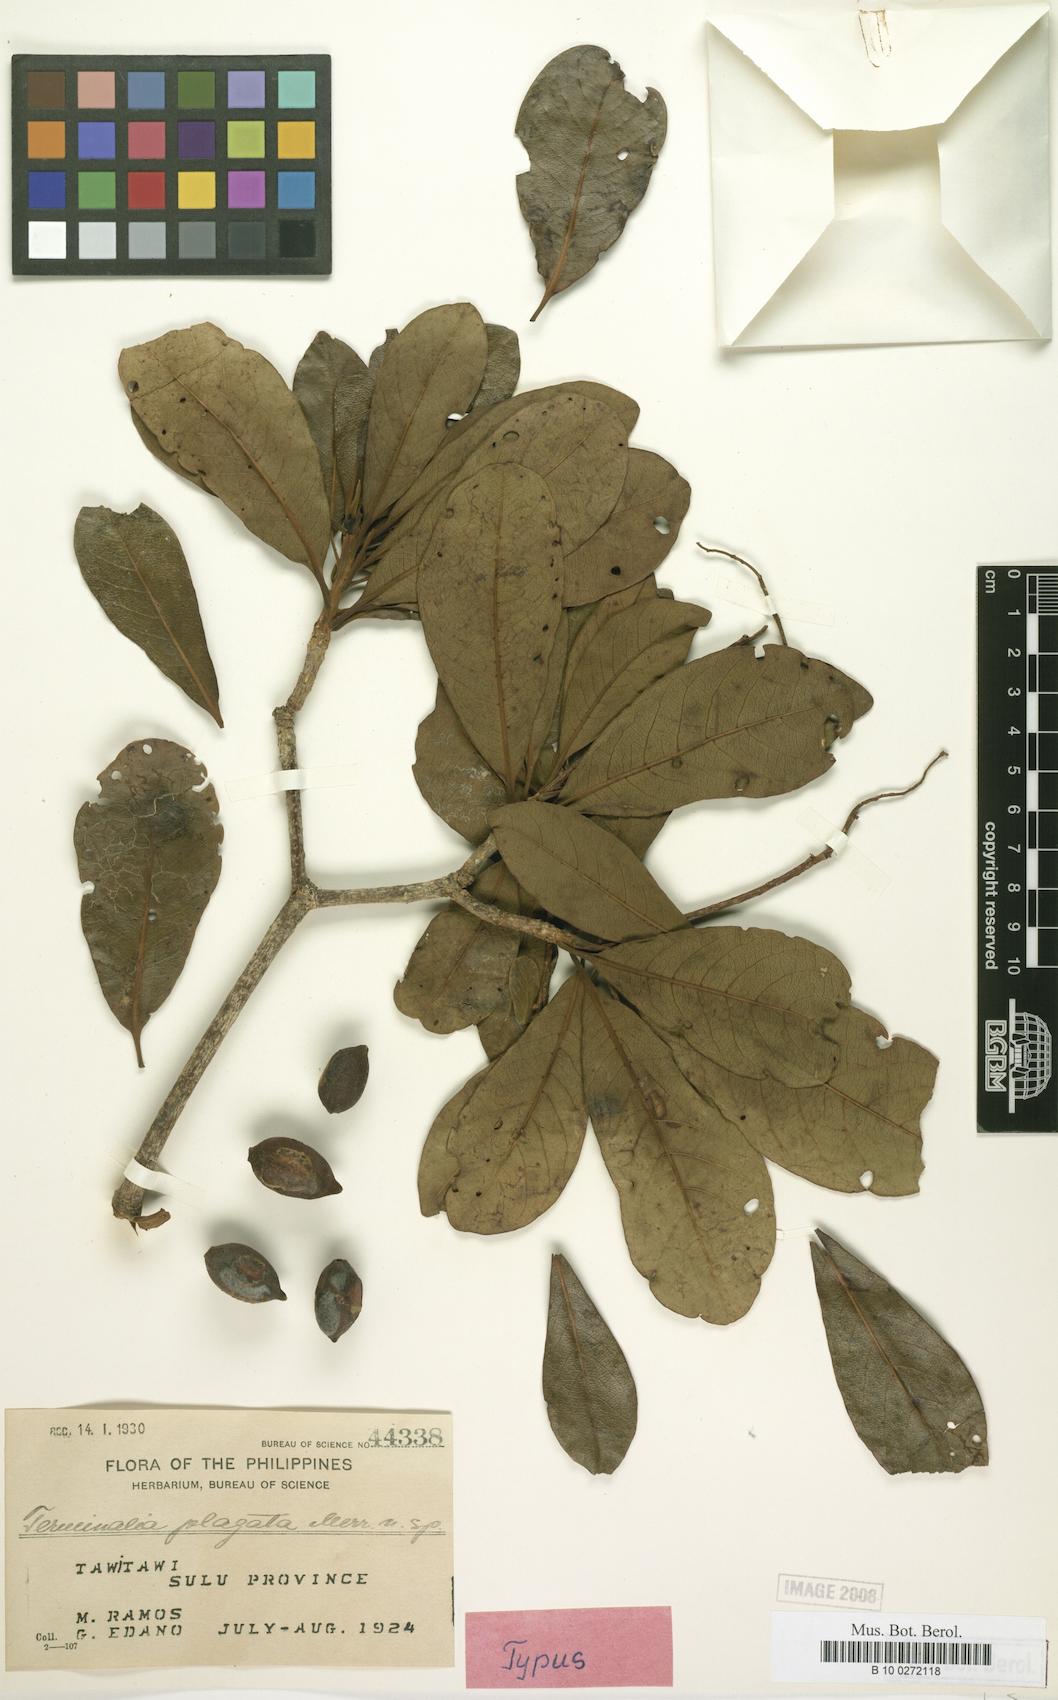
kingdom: Plantae
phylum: Tracheophyta
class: Magnoliopsida
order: Myrtales
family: Combretaceae
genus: Terminalia
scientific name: Terminalia plagata
